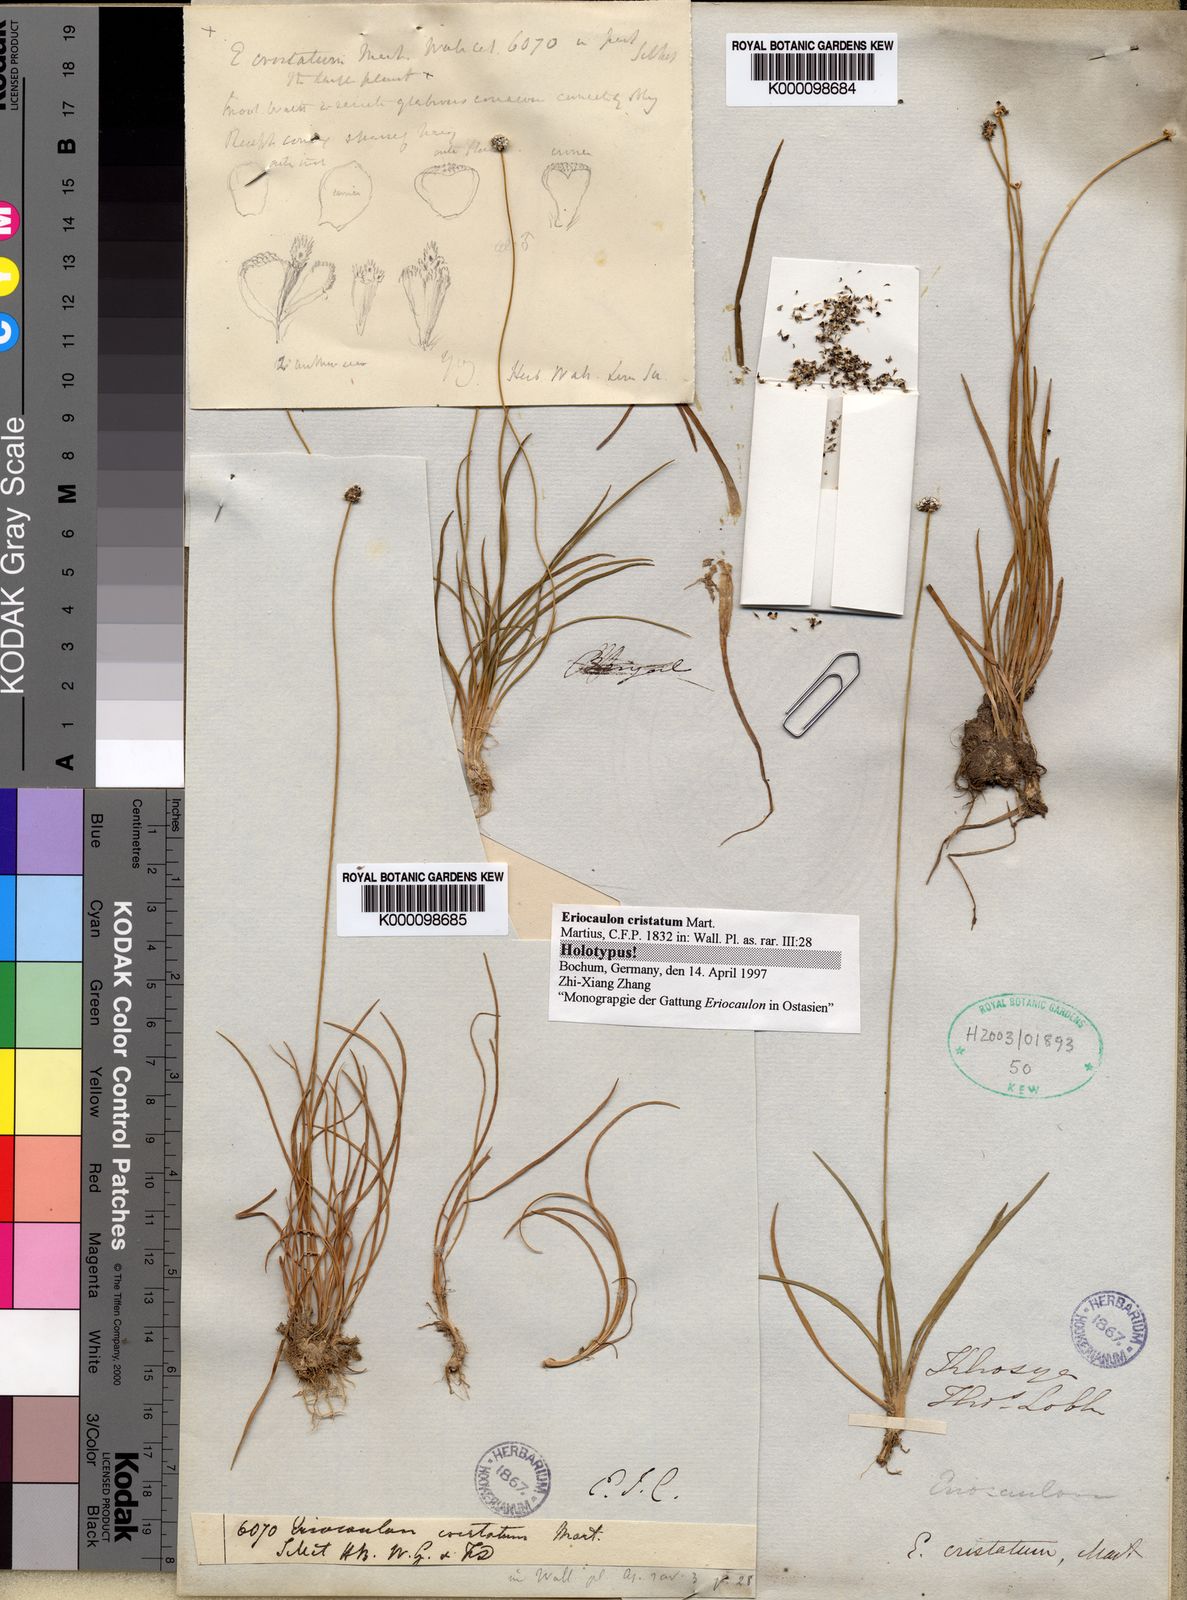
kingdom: Plantae
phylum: Tracheophyta
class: Liliopsida
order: Poales
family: Eriocaulaceae
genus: Eriocaulon
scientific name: Eriocaulon cristatum
